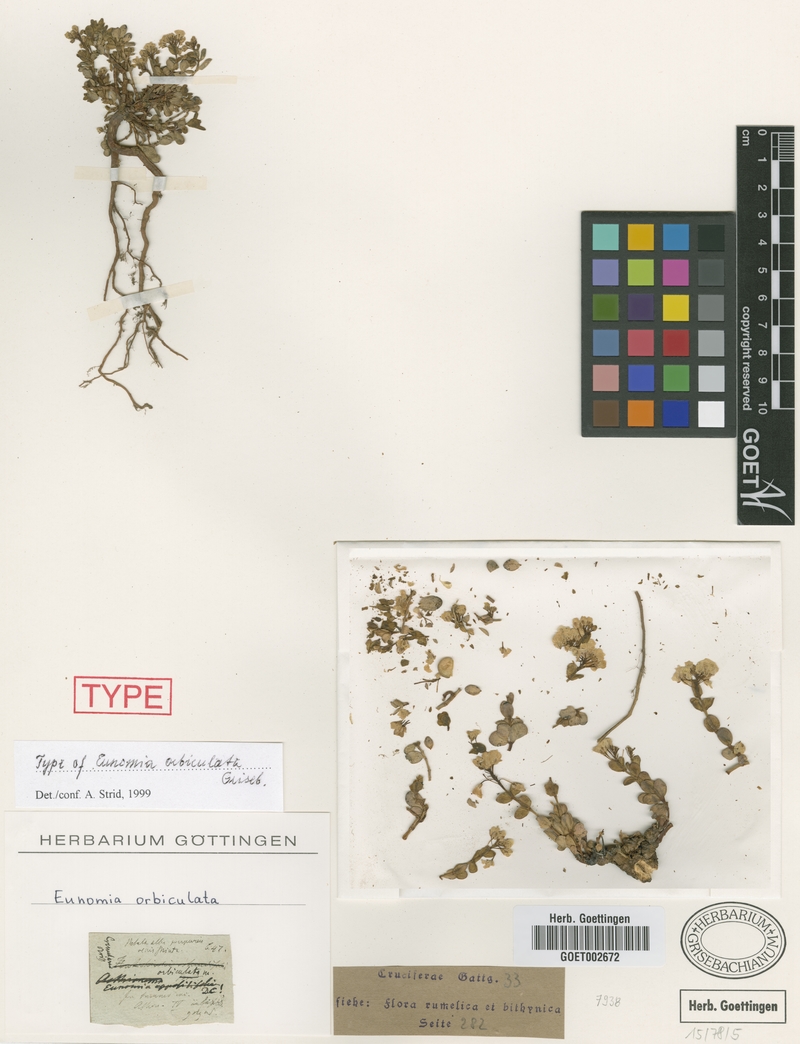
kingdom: Plantae
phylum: Tracheophyta
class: Magnoliopsida
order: Brassicales
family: Brassicaceae
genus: Aethionema
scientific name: Aethionema orbiculatum
